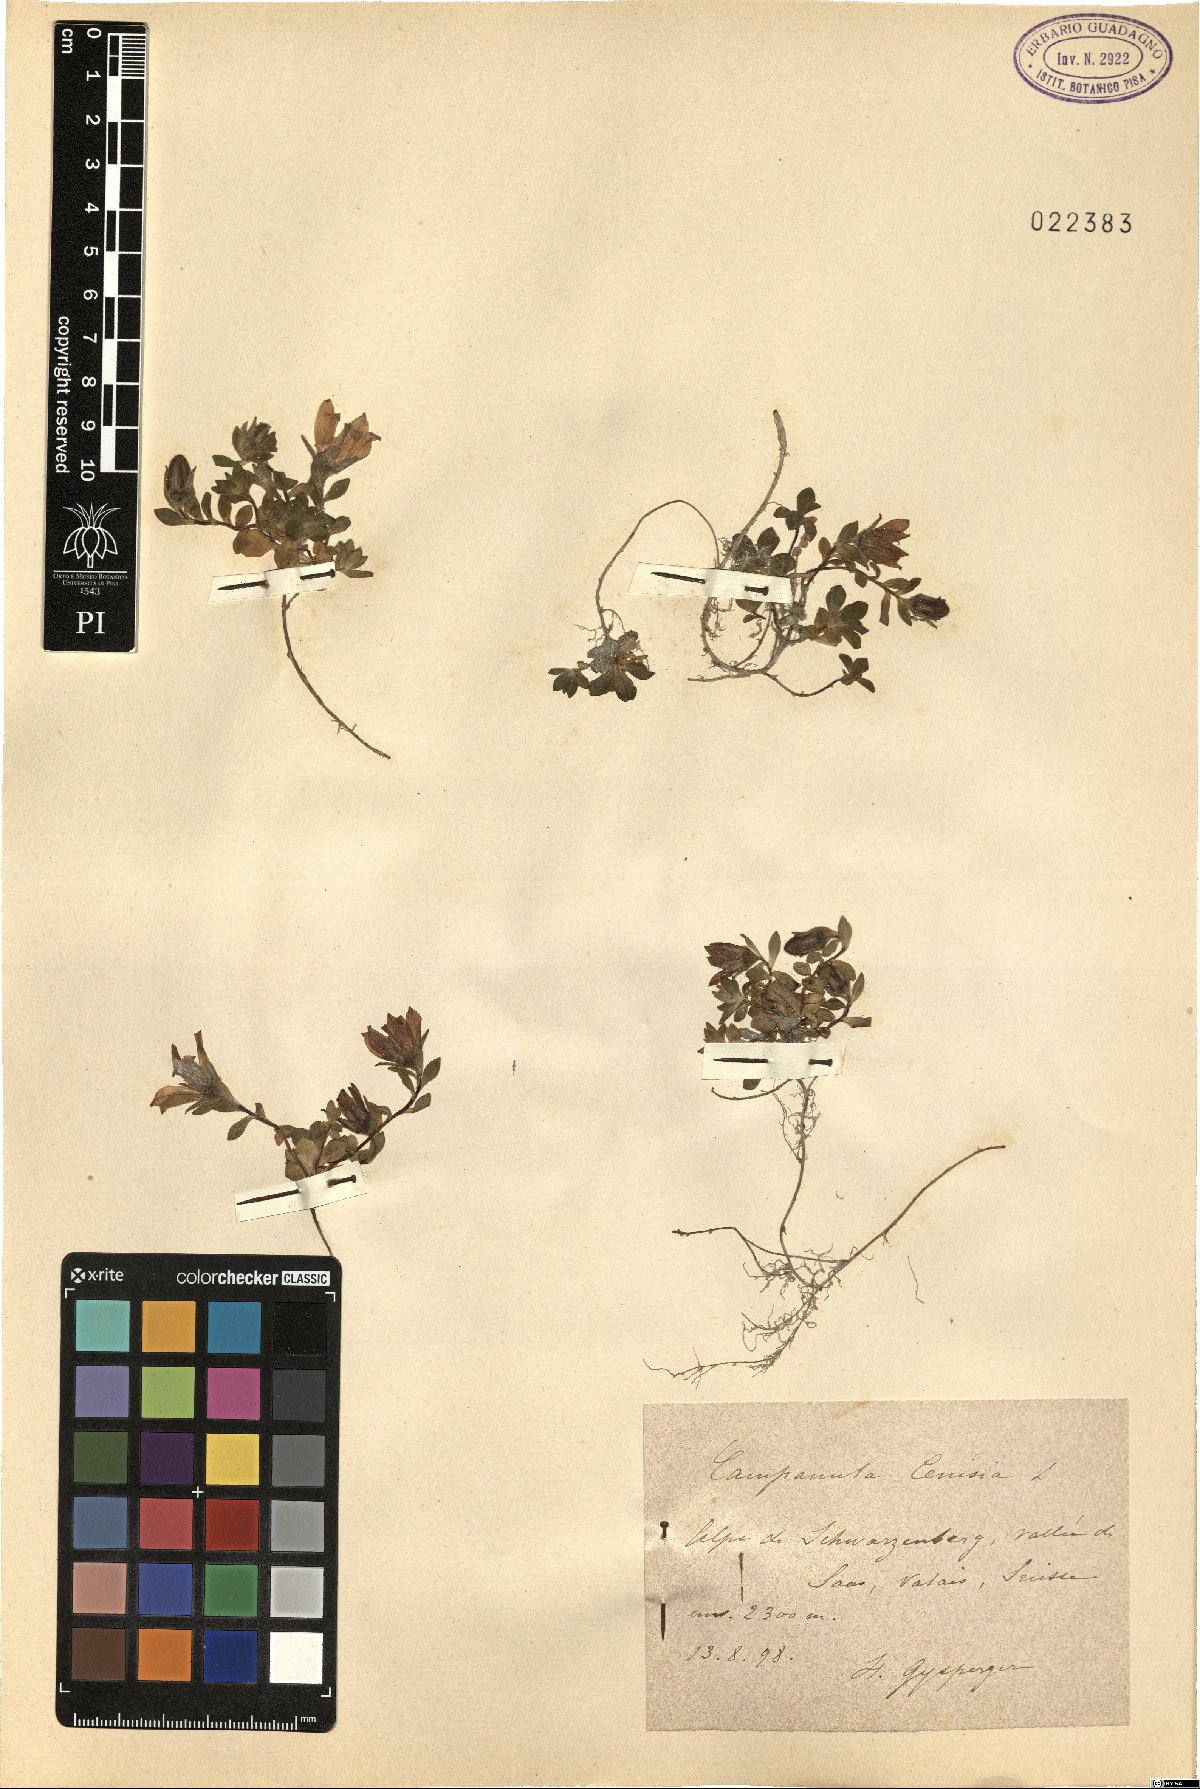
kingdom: Plantae
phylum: Tracheophyta
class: Magnoliopsida
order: Asterales
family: Campanulaceae
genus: Campanula
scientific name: Campanula cenisia
